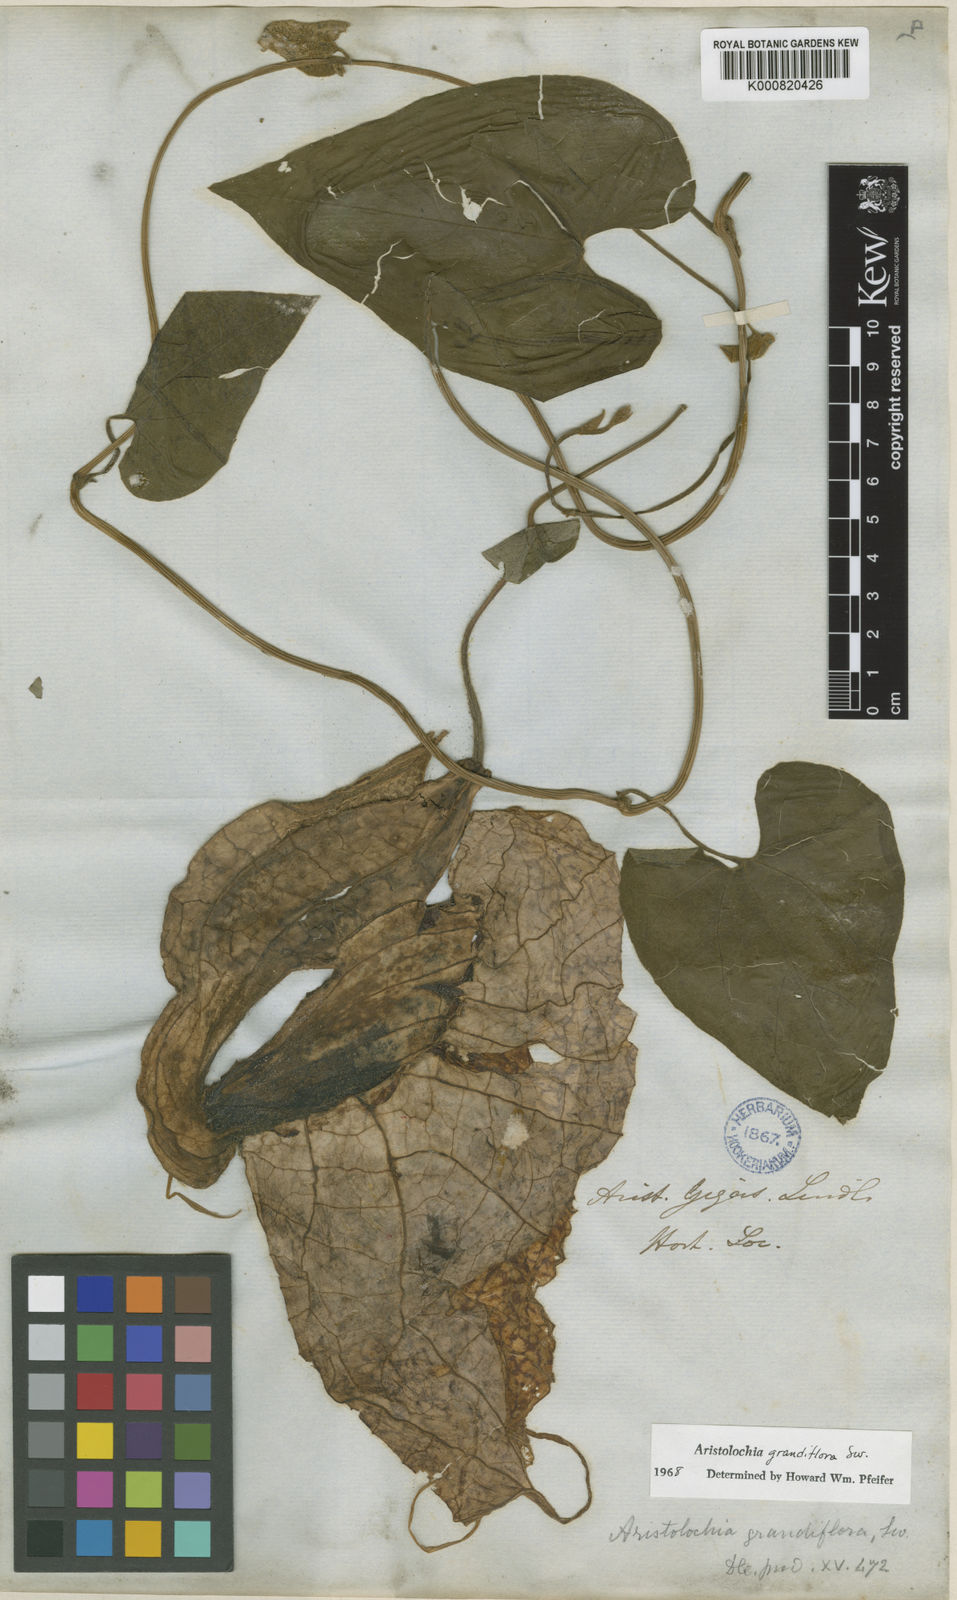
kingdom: Plantae
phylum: Tracheophyta
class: Magnoliopsida
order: Piperales
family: Aristolochiaceae
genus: Aristolochia
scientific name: Aristolochia grandiflora
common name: Pelicanflower
